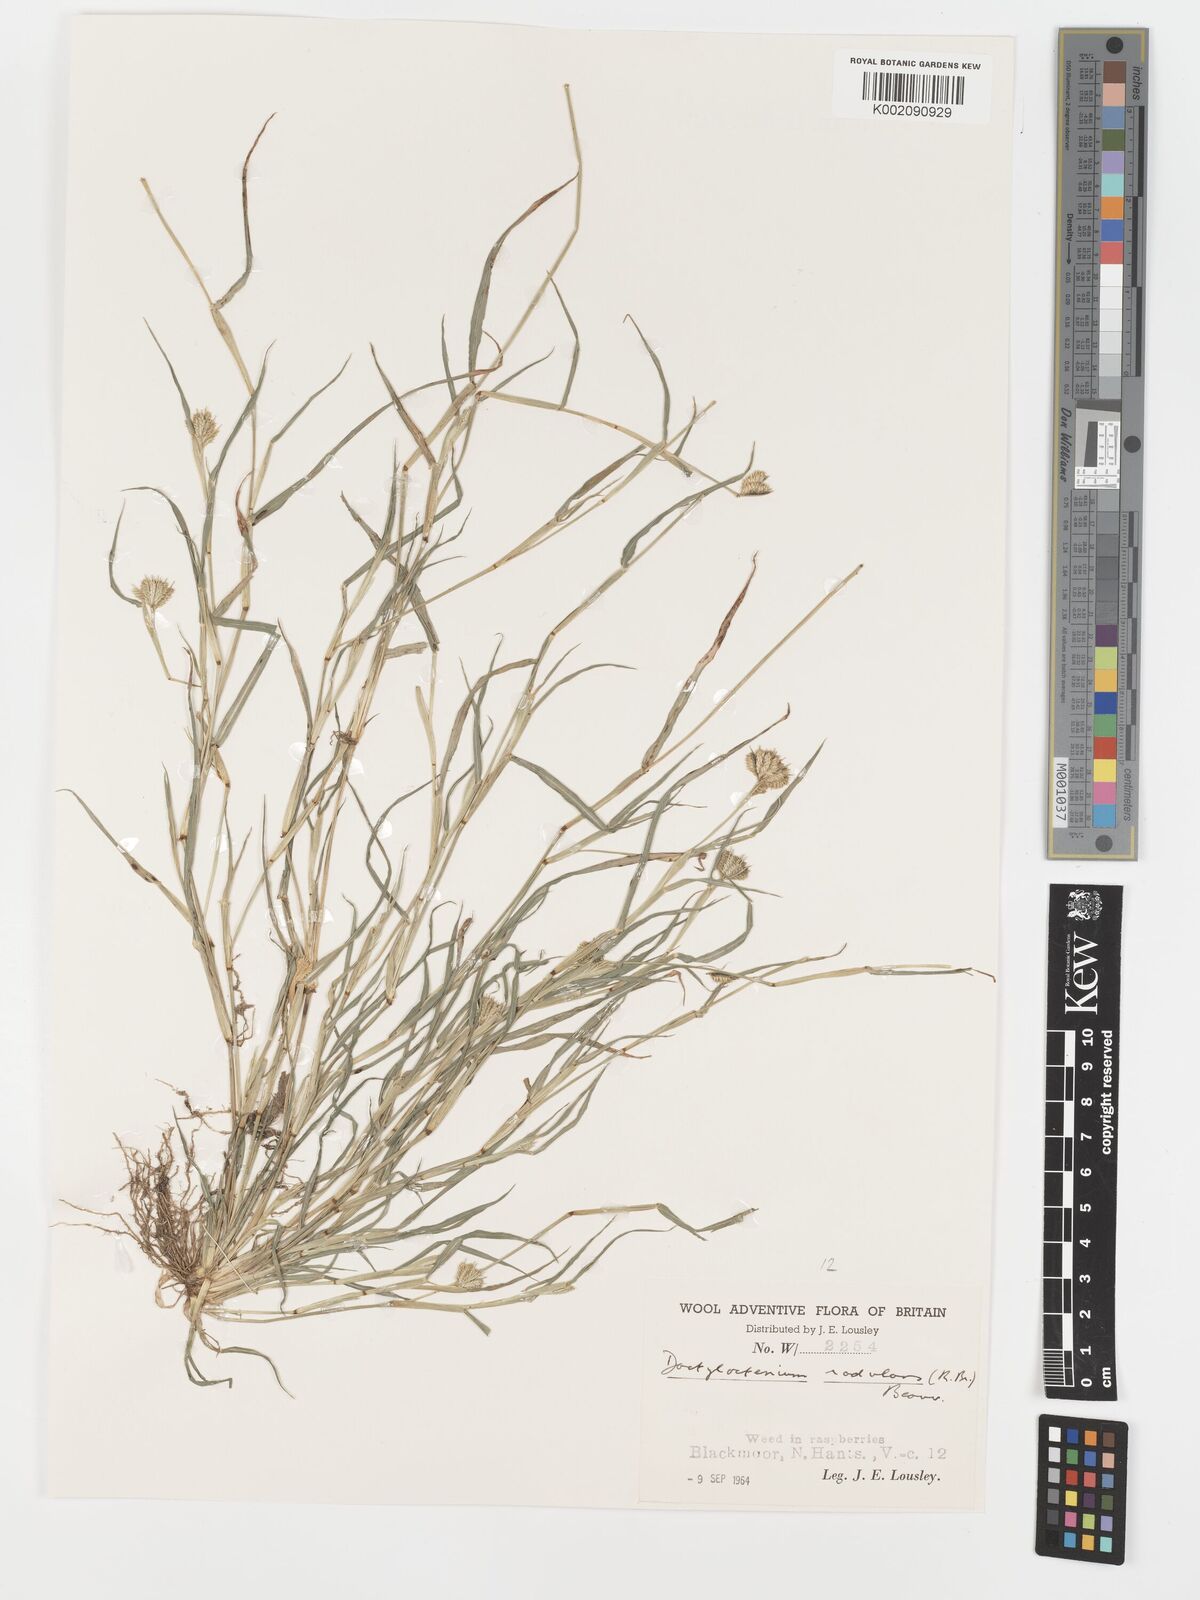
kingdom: Plantae
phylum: Tracheophyta
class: Liliopsida
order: Poales
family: Poaceae
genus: Dactyloctenium
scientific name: Dactyloctenium radulans
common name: Button-grass
